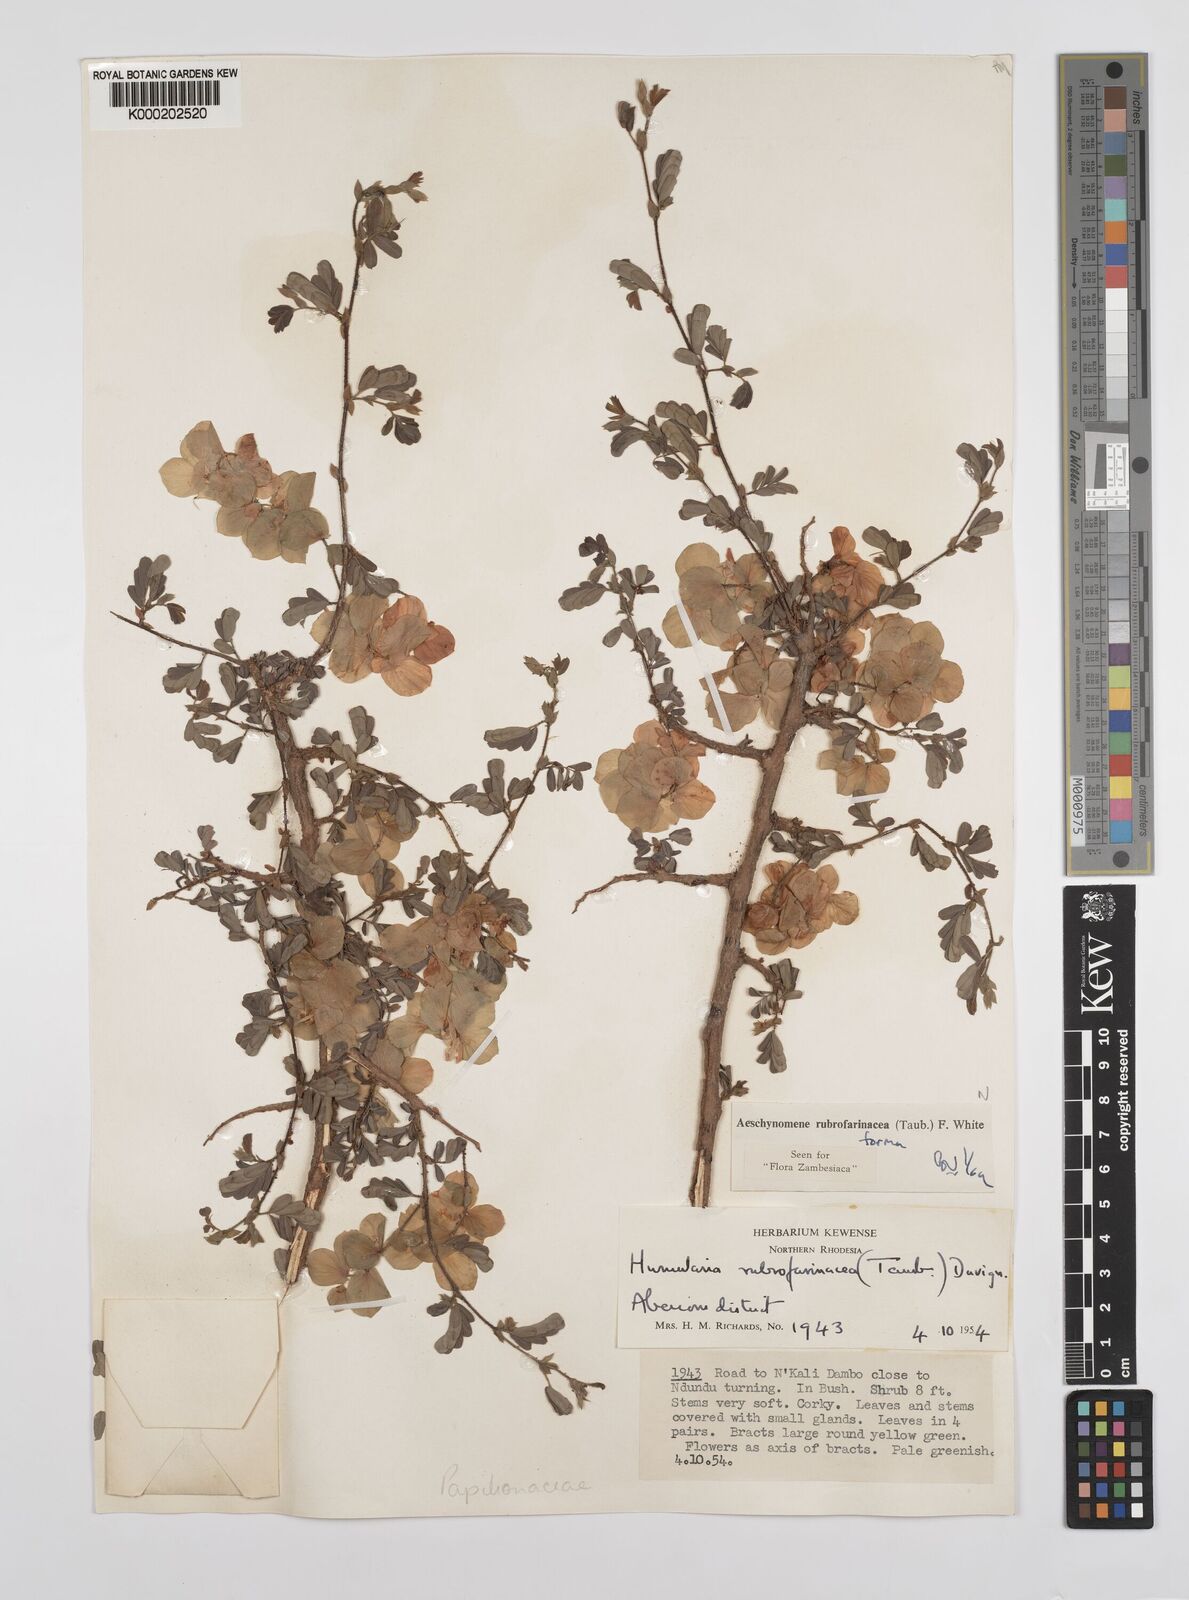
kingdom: Plantae
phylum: Tracheophyta
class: Magnoliopsida
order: Fabales
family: Fabaceae
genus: Aeschynomene
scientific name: Aeschynomene rubrofarinacea
